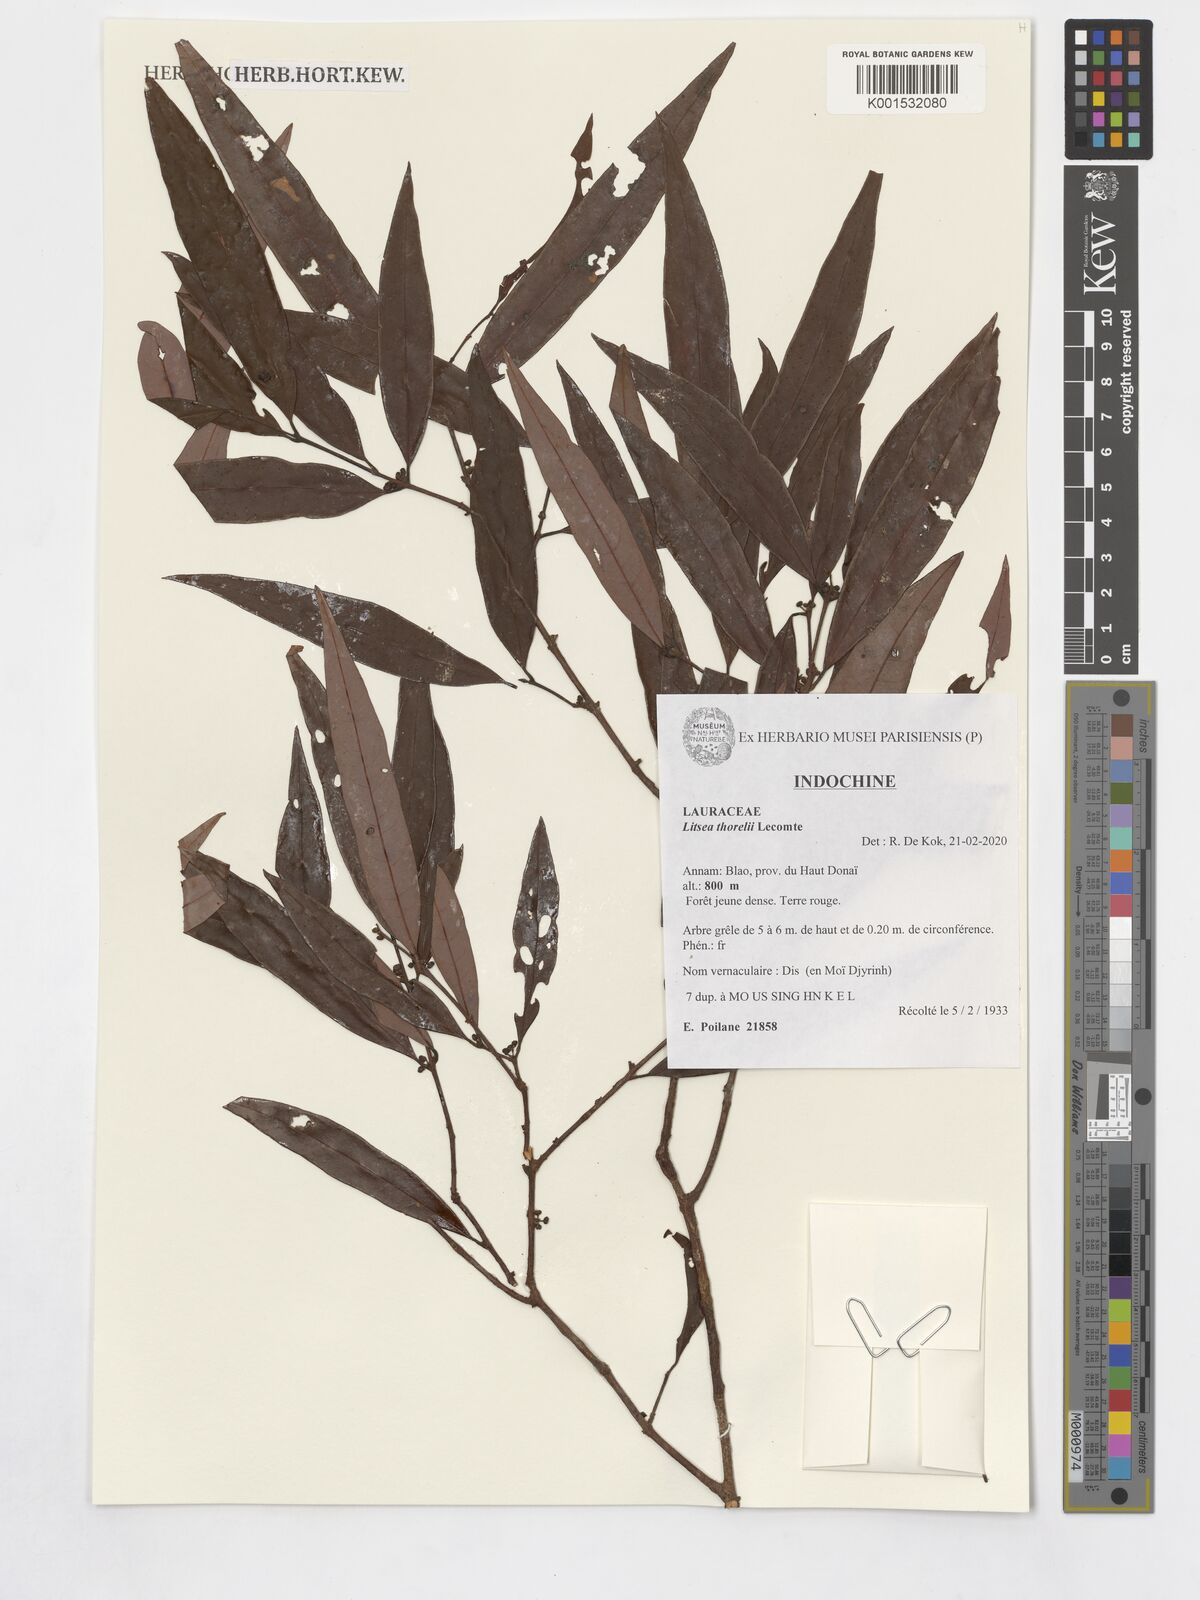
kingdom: Plantae
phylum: Tracheophyta
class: Magnoliopsida
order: Laurales
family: Lauraceae
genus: Litsea
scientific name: Litsea thorelii
